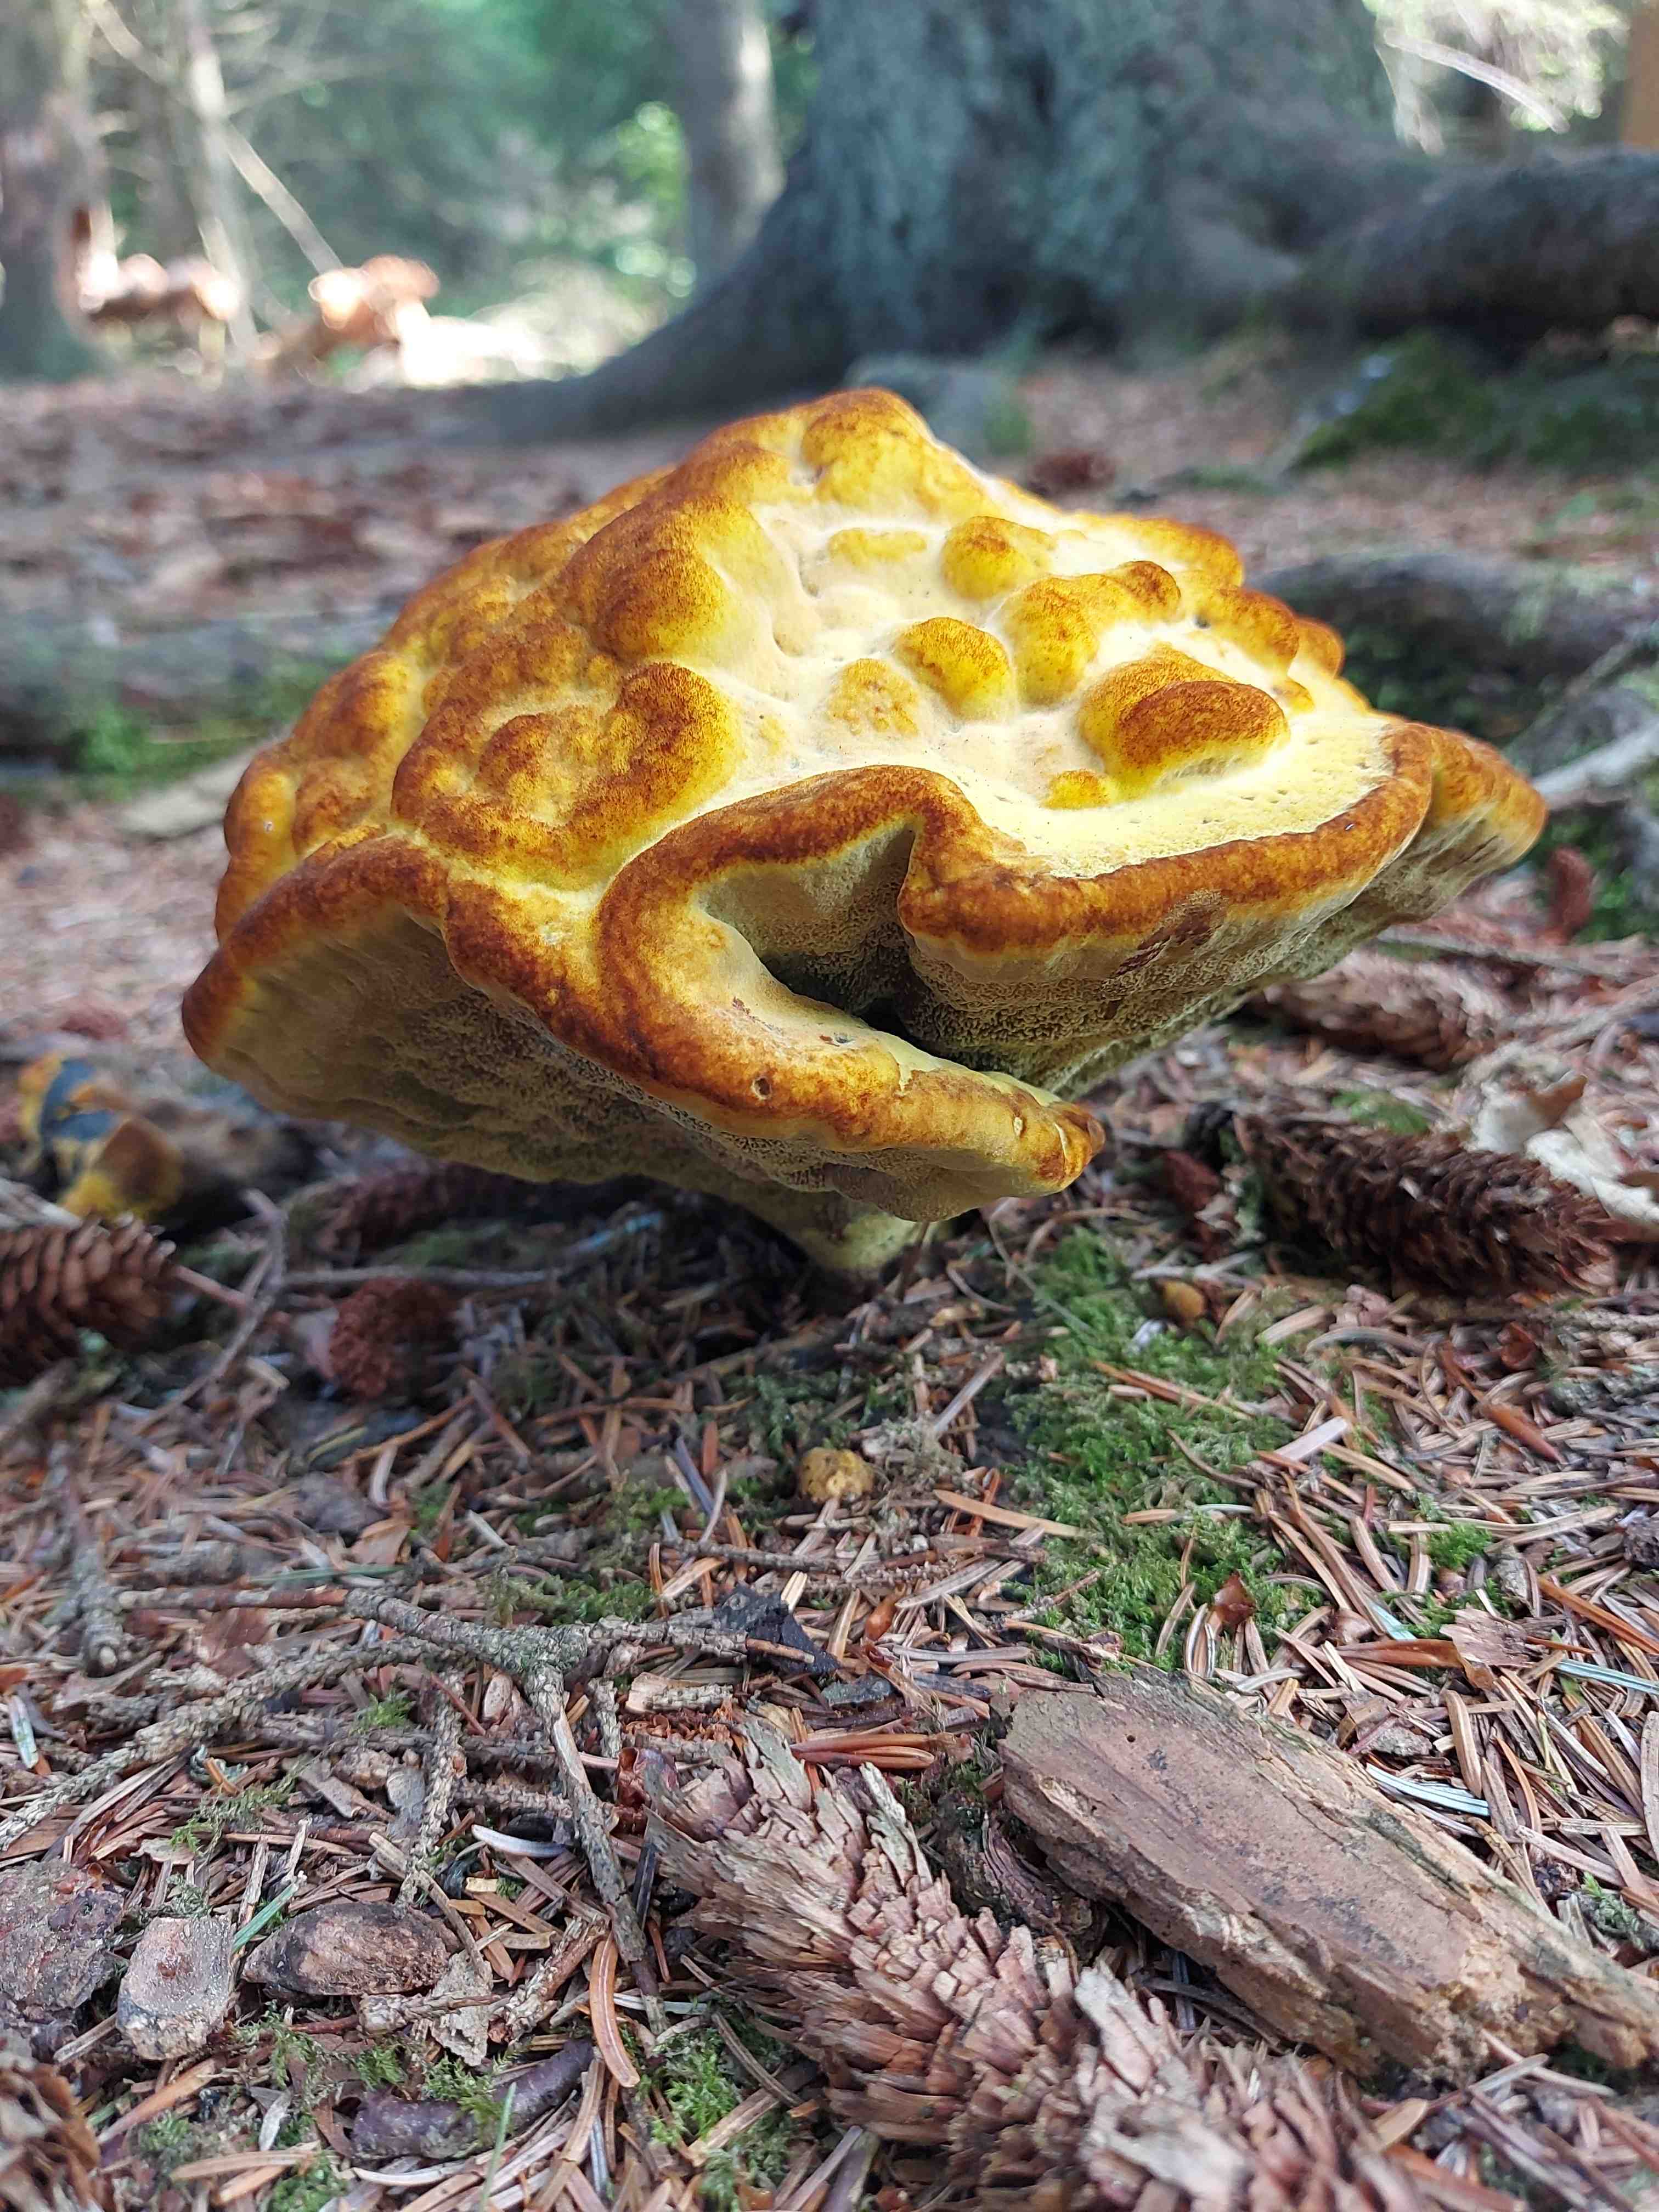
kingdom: Fungi
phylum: Basidiomycota
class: Agaricomycetes
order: Polyporales
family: Laetiporaceae
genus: Phaeolus
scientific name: Phaeolus schweinitzii
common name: brunporesvamp
